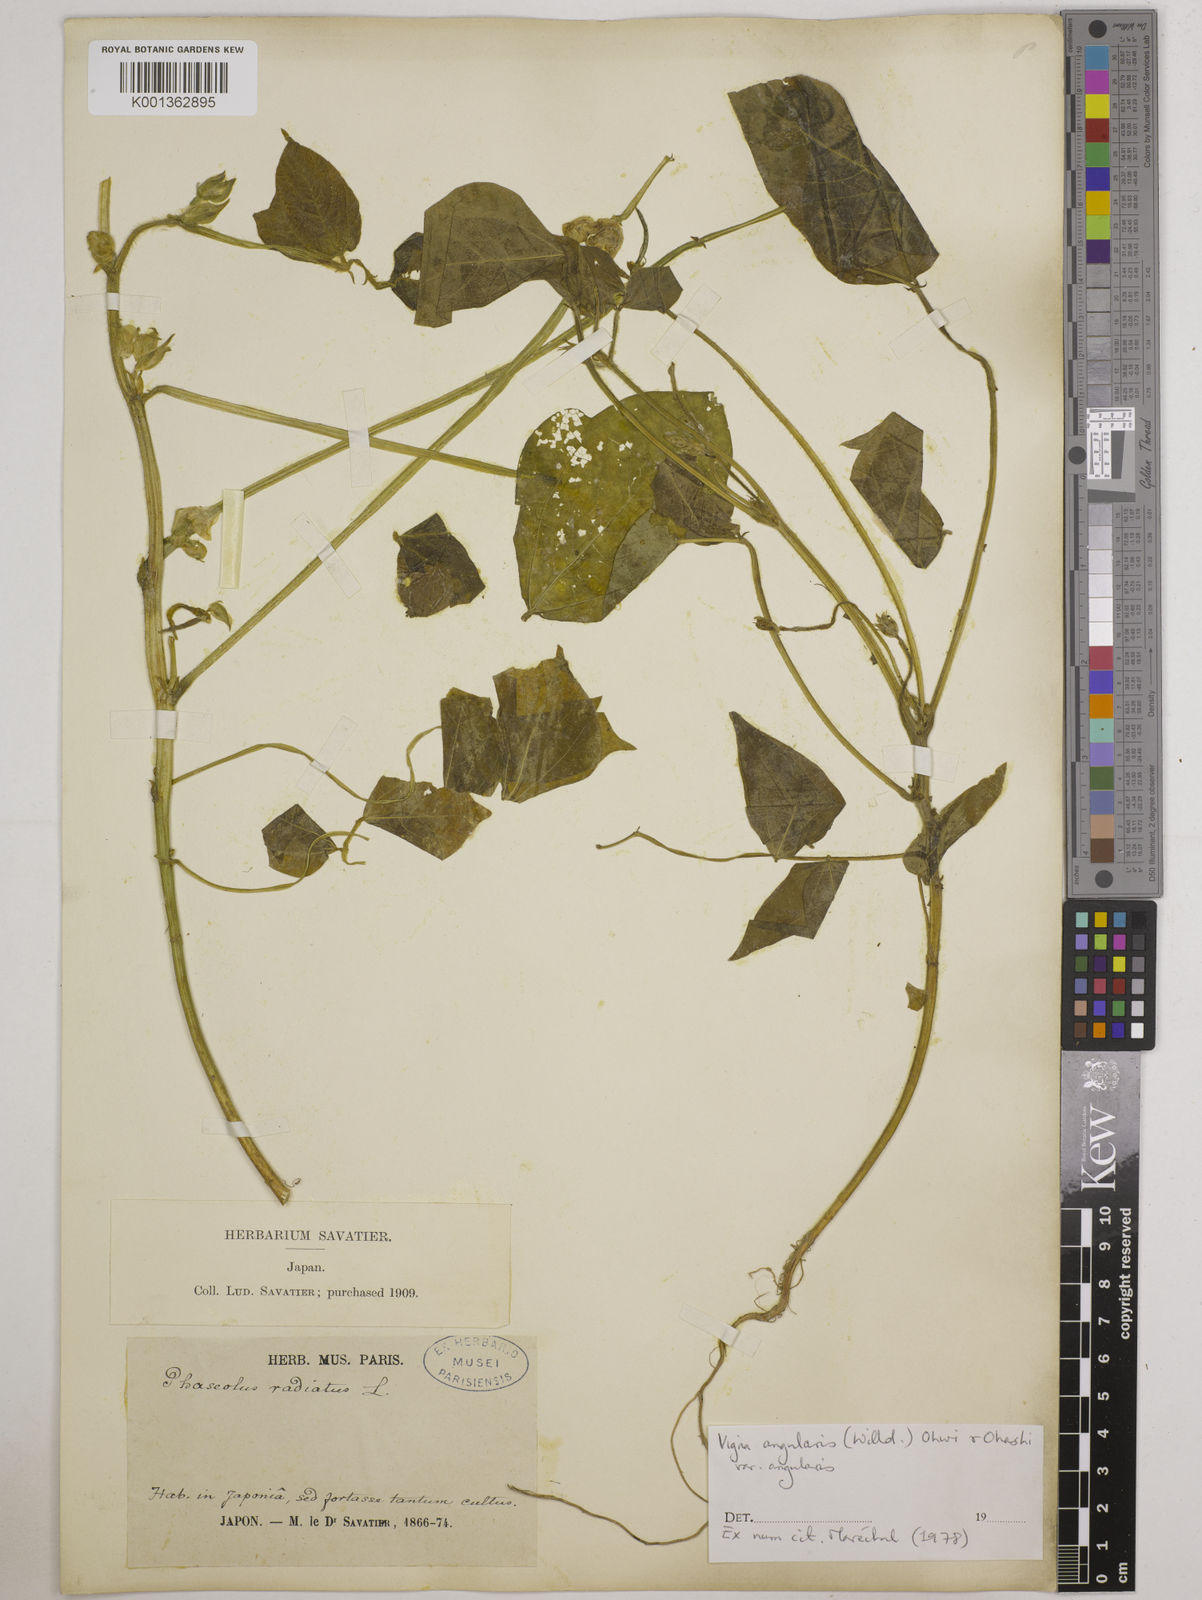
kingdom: Plantae
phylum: Tracheophyta
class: Magnoliopsida
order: Fabales
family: Fabaceae
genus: Vigna
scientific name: Vigna
